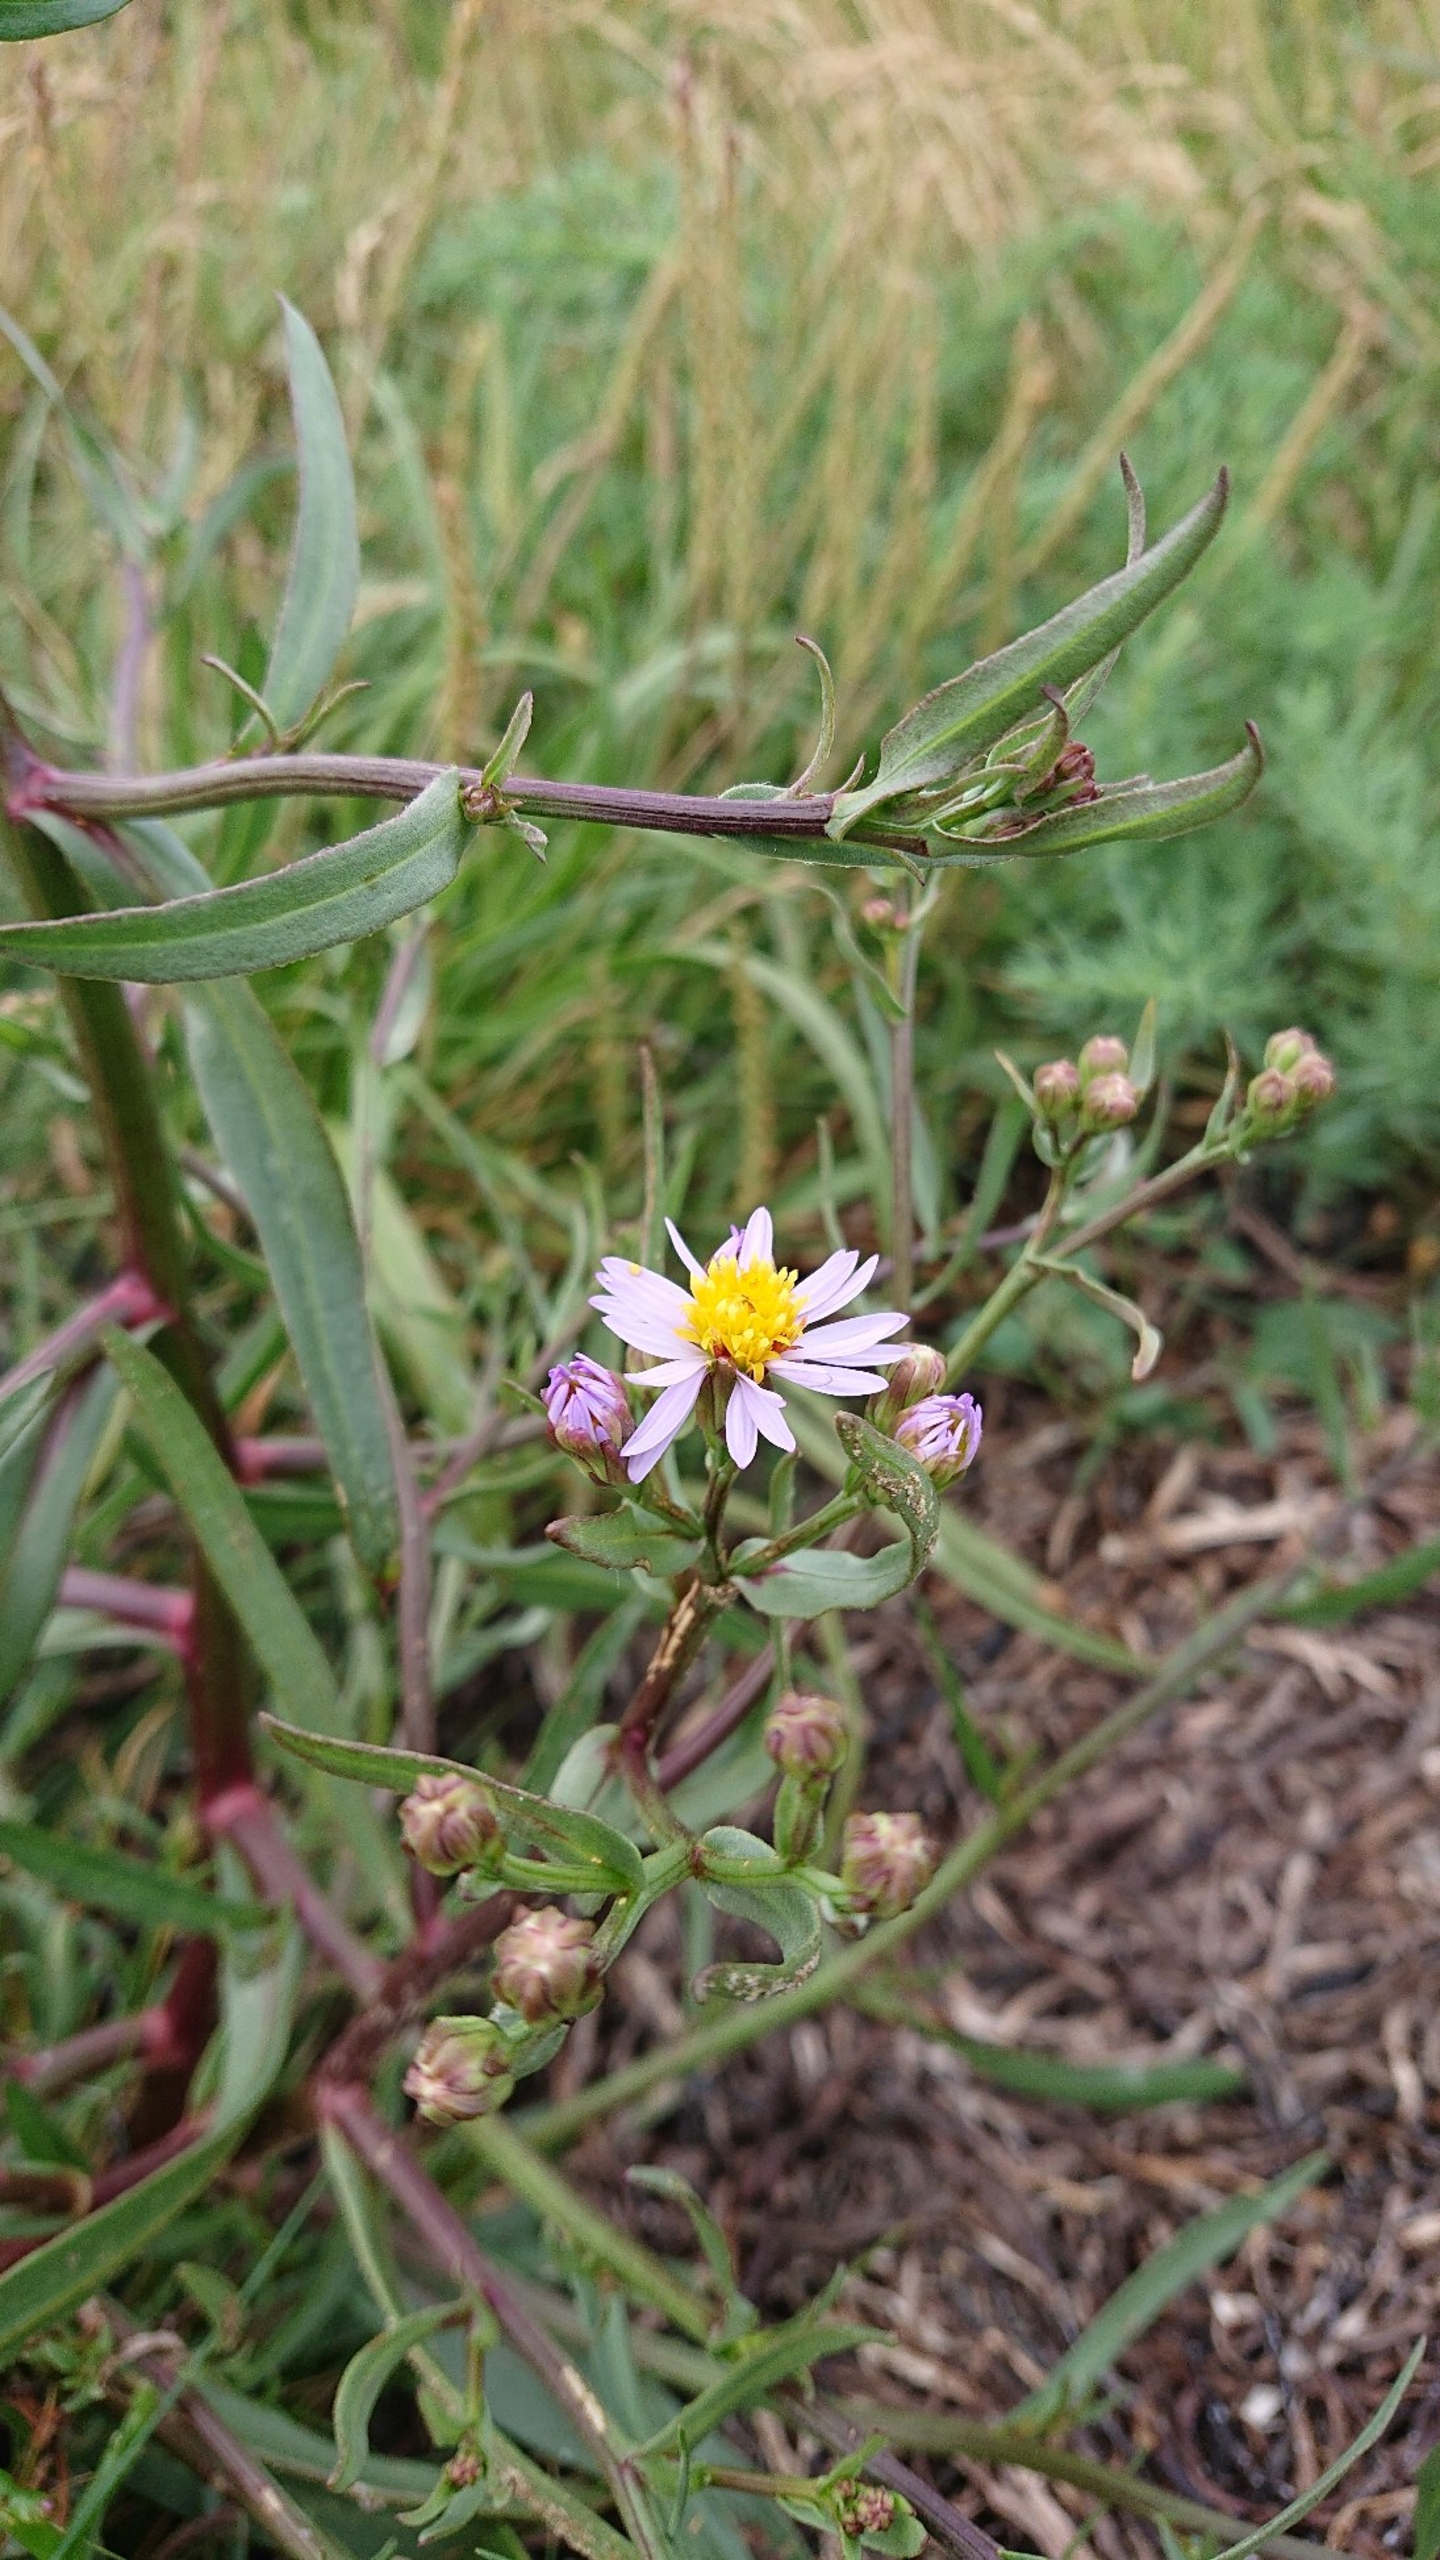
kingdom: Plantae
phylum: Tracheophyta
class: Magnoliopsida
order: Asterales
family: Asteraceae
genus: Tripolium
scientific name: Tripolium pannonicum
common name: Strandasters (underart)
